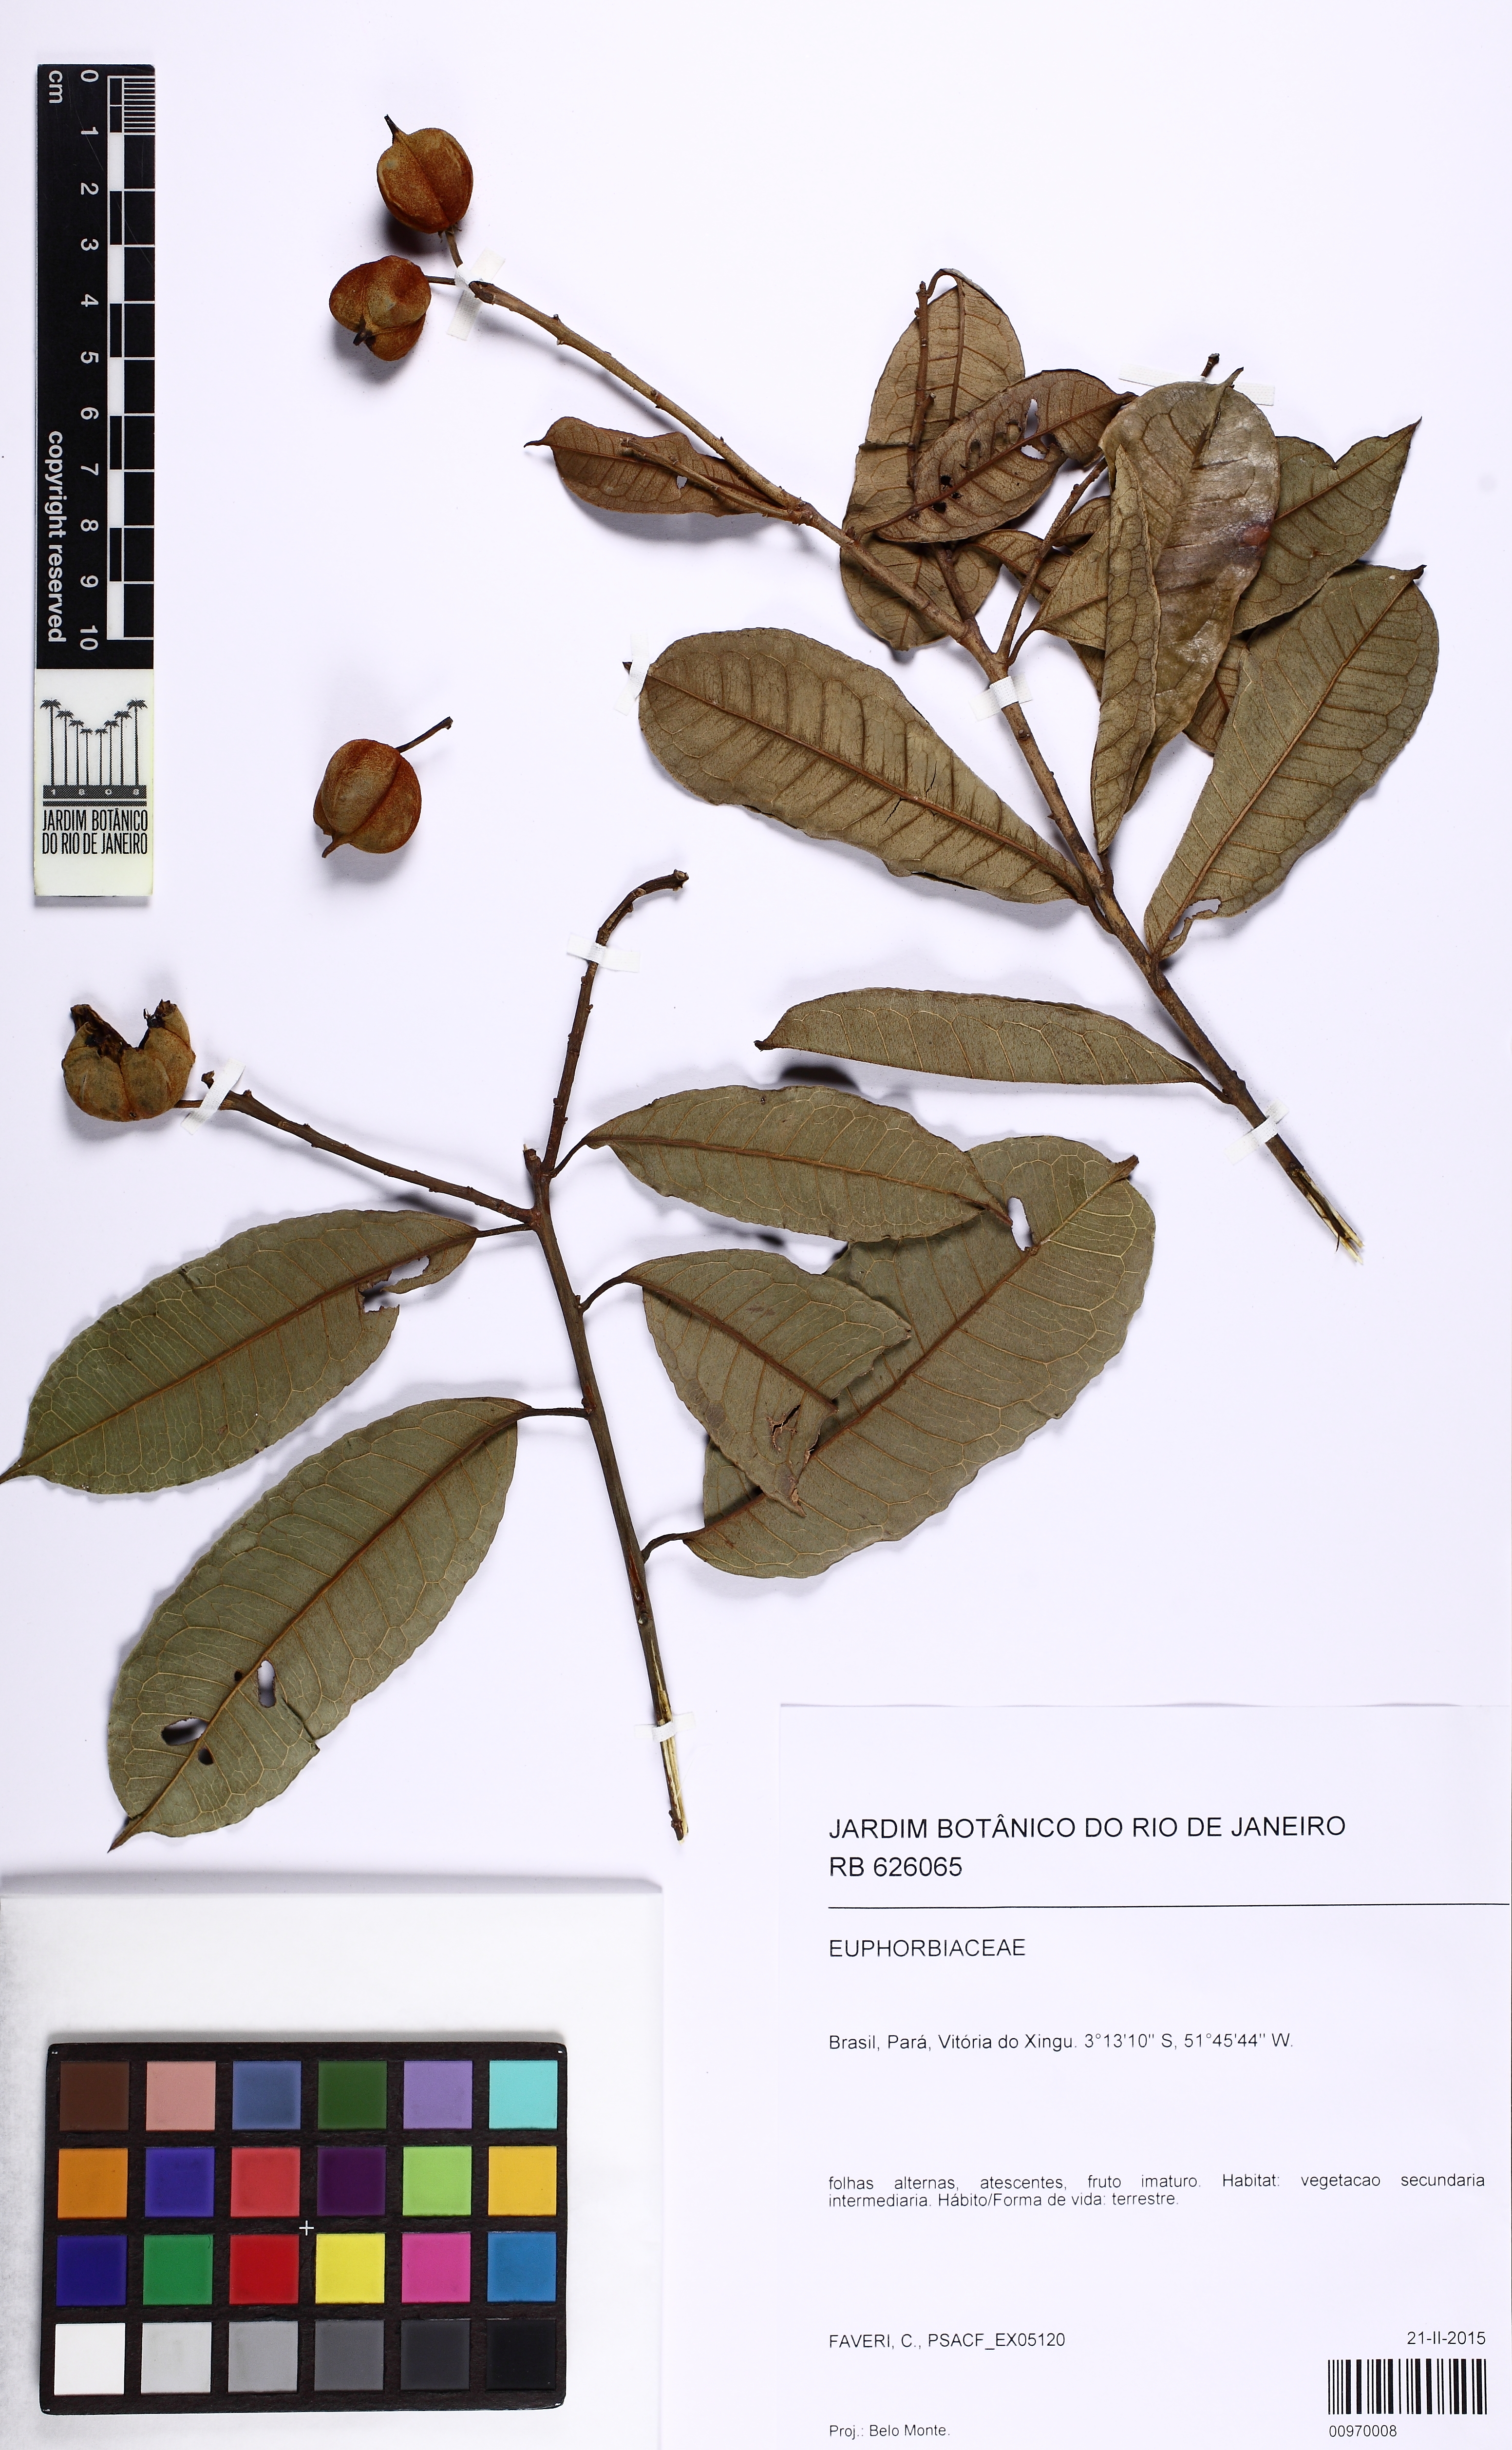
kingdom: Plantae
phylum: Tracheophyta
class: Magnoliopsida
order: Malpighiales
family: Euphorbiaceae
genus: Mabea
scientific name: Mabea
